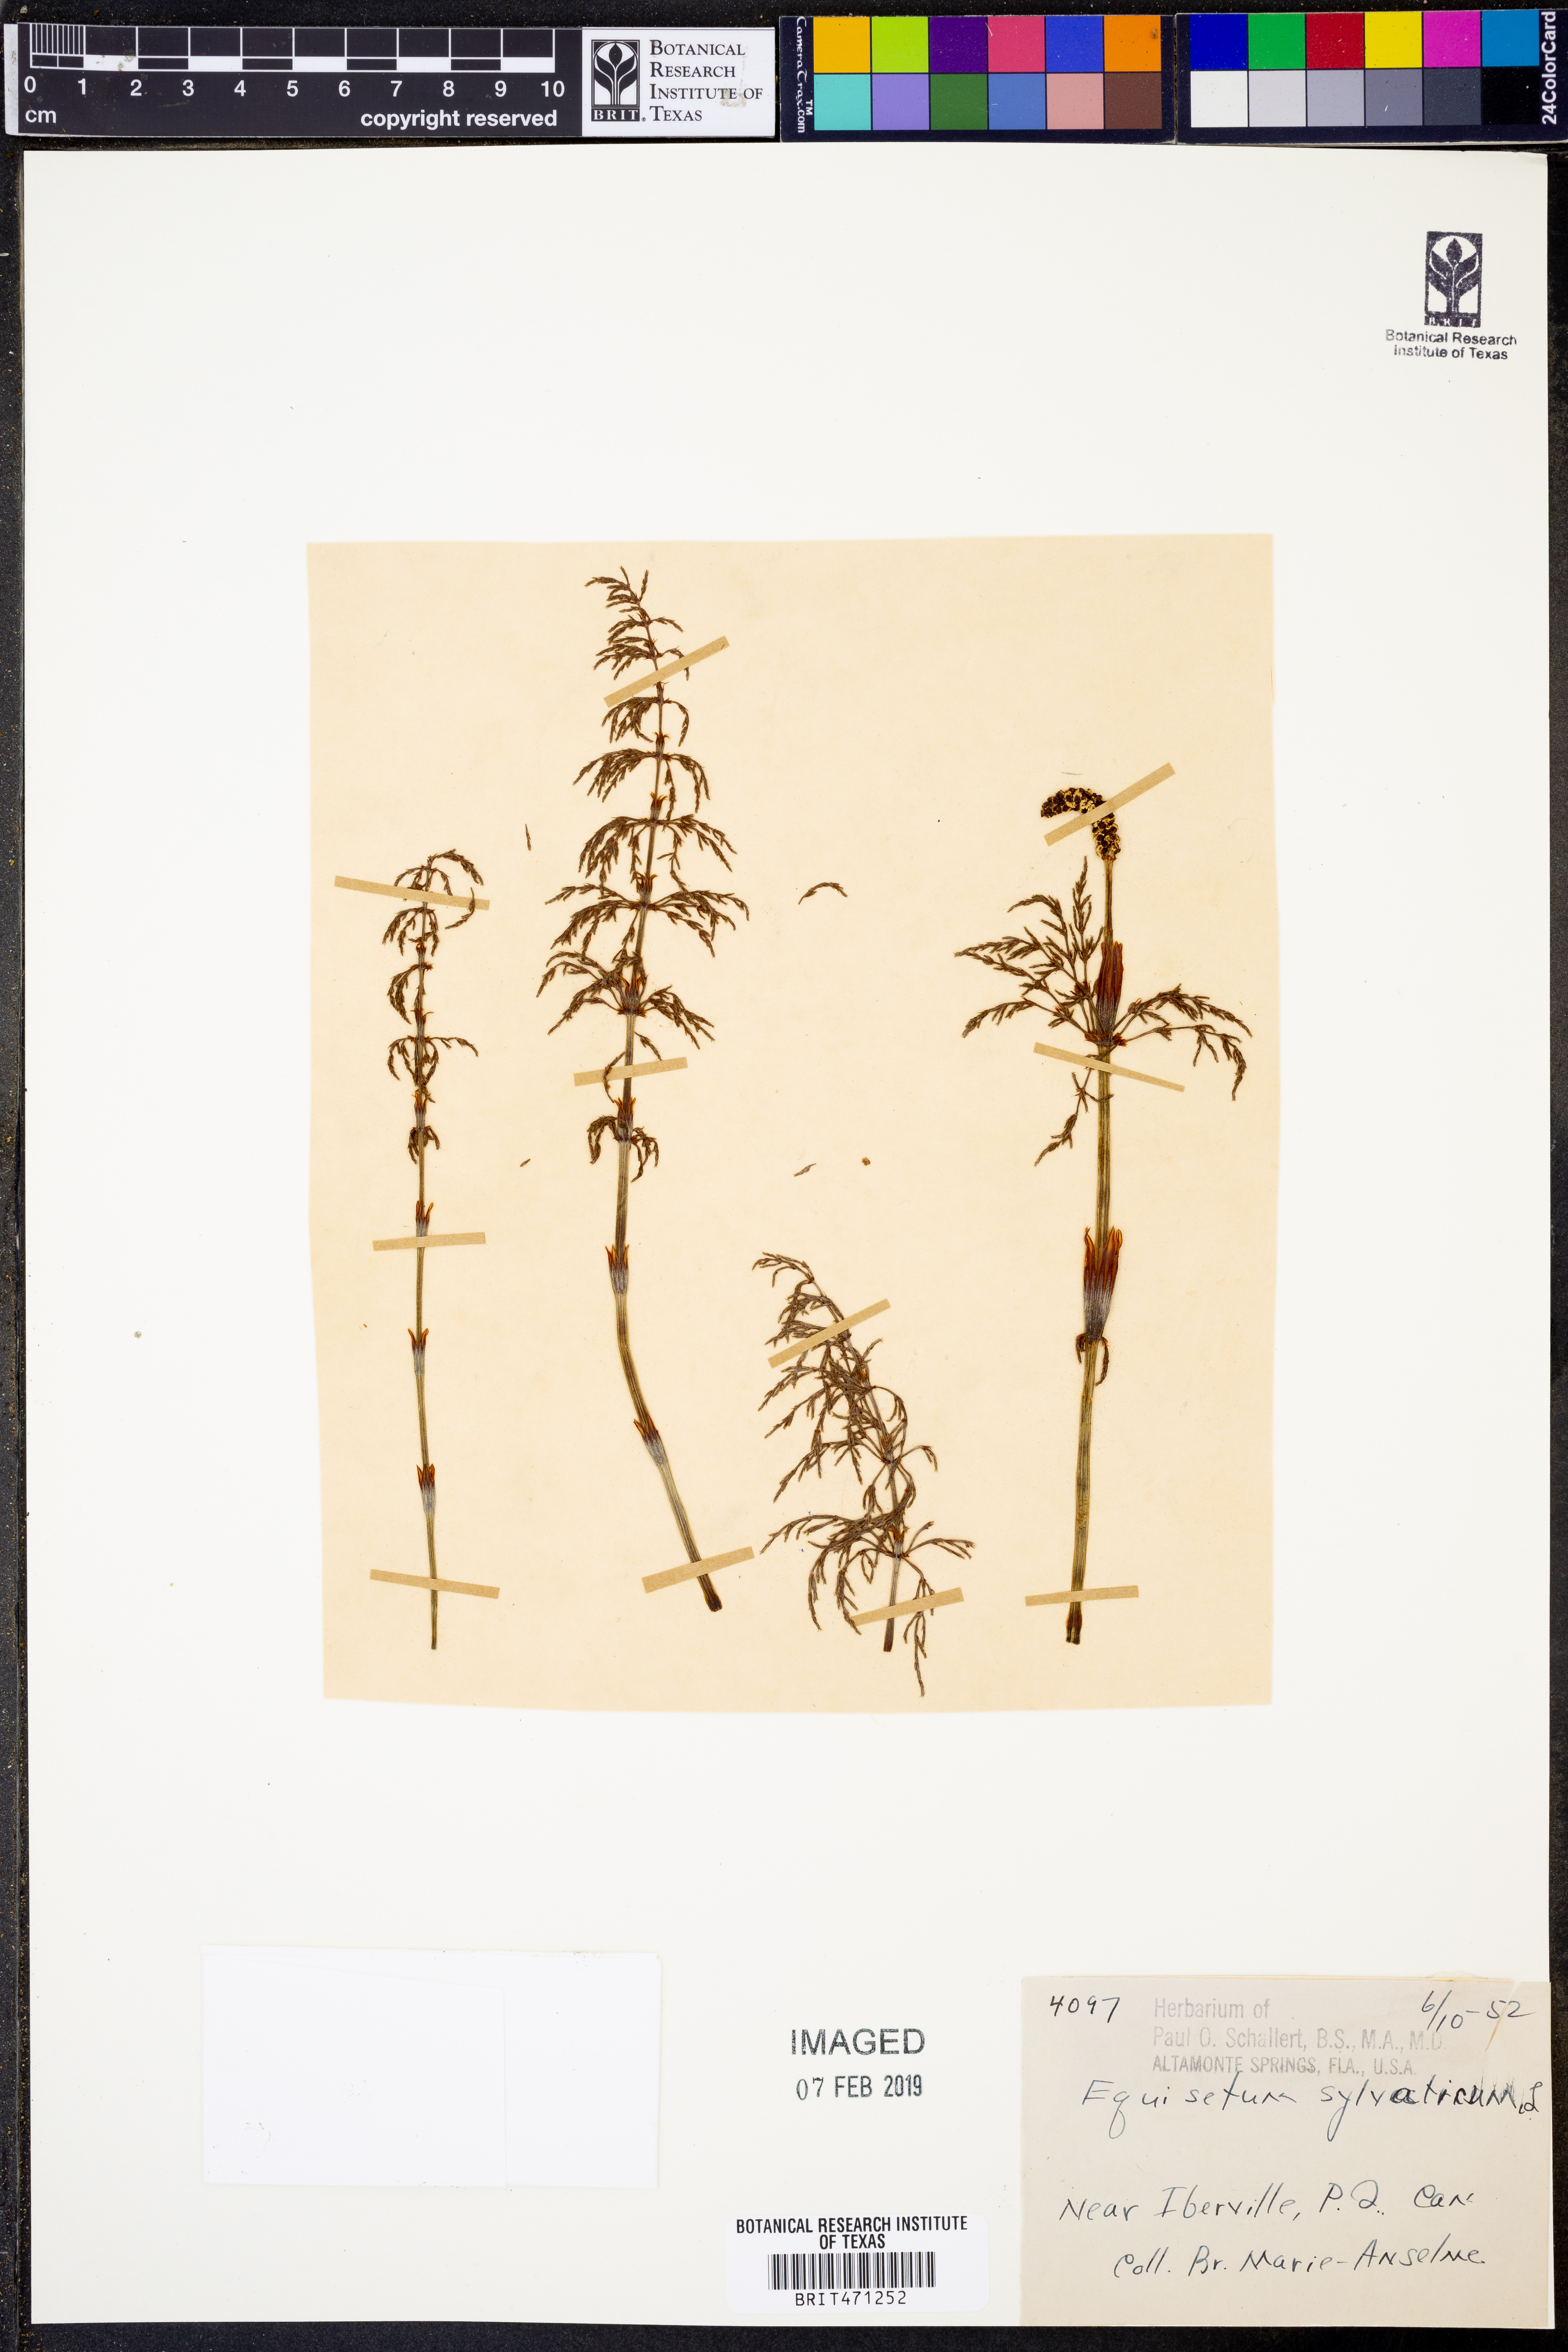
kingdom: Plantae
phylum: Tracheophyta
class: Polypodiopsida
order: Equisetales
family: Equisetaceae
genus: Equisetum
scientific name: Equisetum sylvaticum
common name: Wood horsetail
